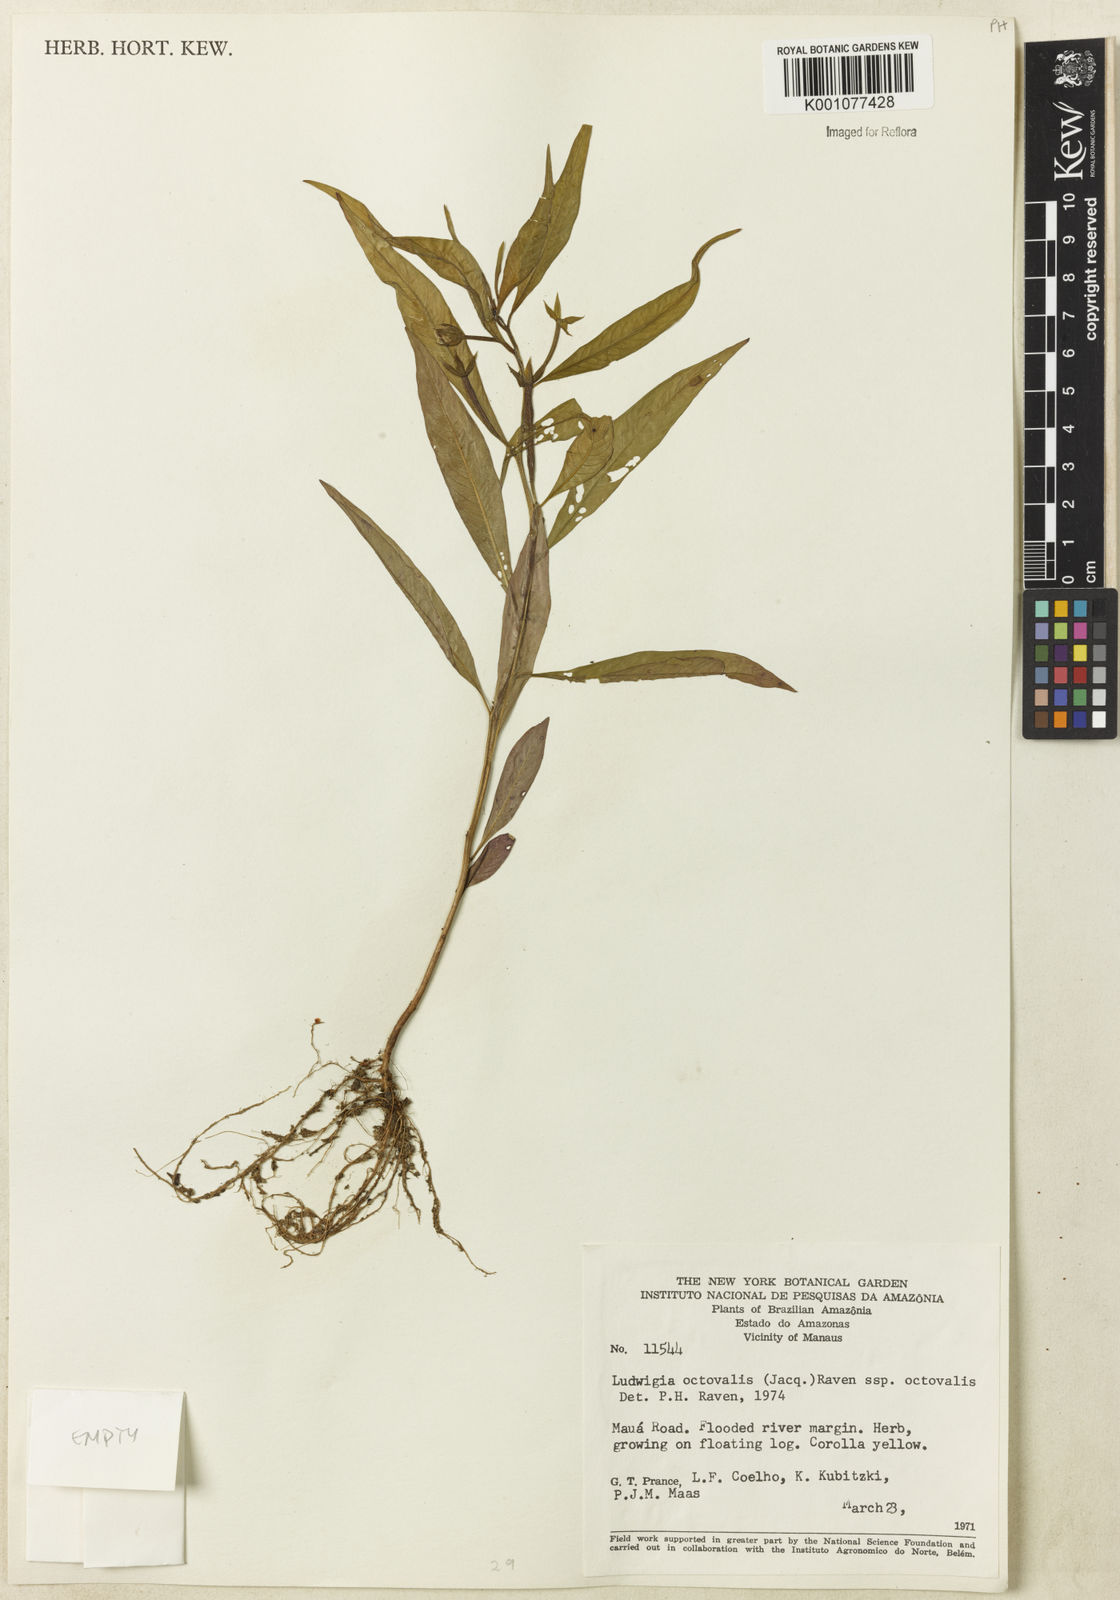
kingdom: Plantae
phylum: Tracheophyta
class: Magnoliopsida
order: Myrtales
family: Onagraceae
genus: Ludwigia
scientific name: Ludwigia octovalvis
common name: Water-primrose
